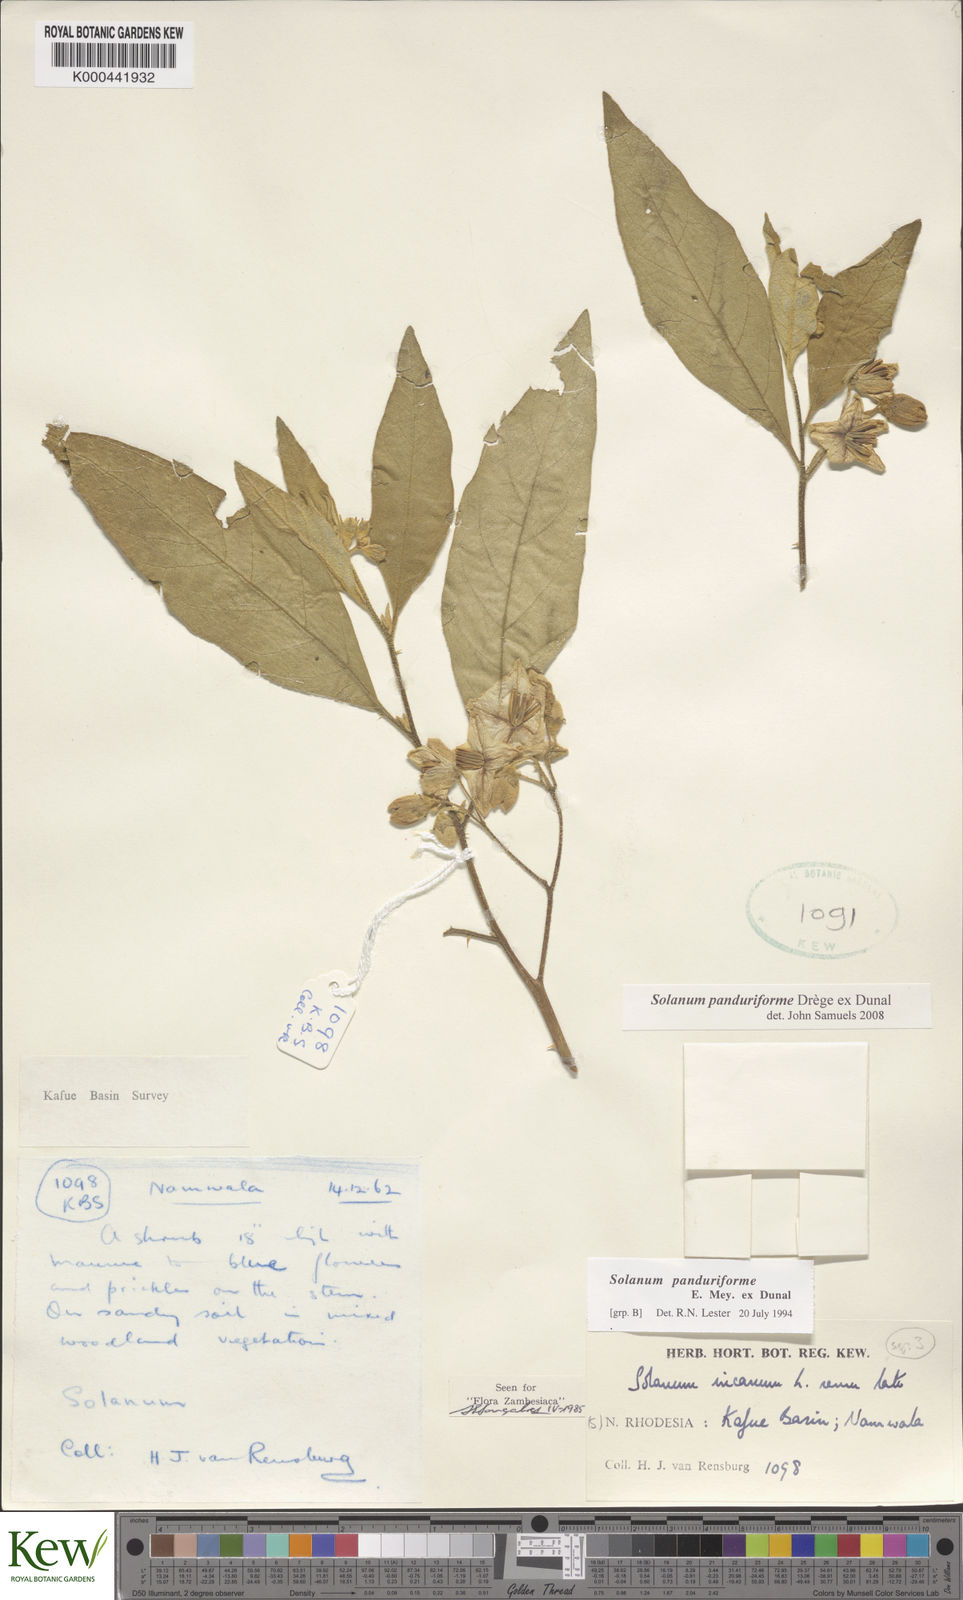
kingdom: Plantae
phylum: Tracheophyta
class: Magnoliopsida
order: Solanales
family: Solanaceae
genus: Solanum
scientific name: Solanum campylacanthum
